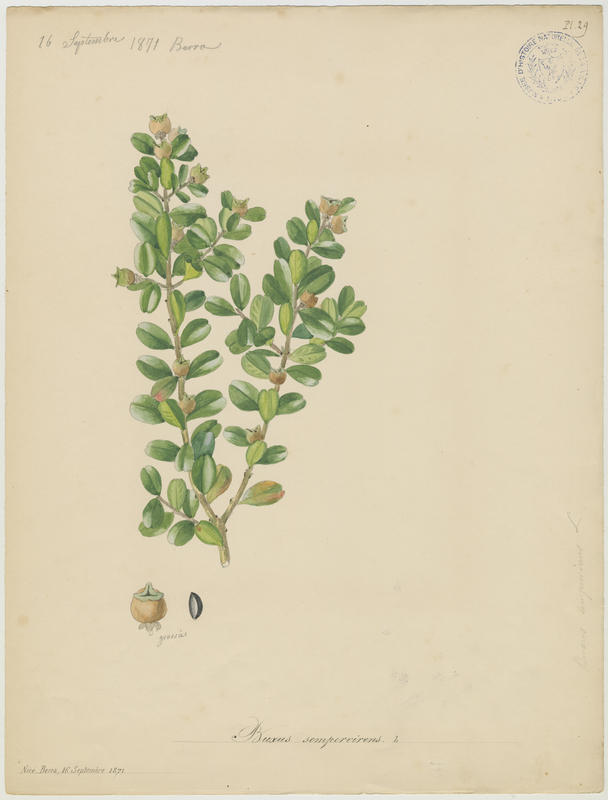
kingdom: Plantae
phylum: Tracheophyta
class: Magnoliopsida
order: Buxales
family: Buxaceae
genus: Buxus
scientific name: Buxus sempervirens
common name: Box
